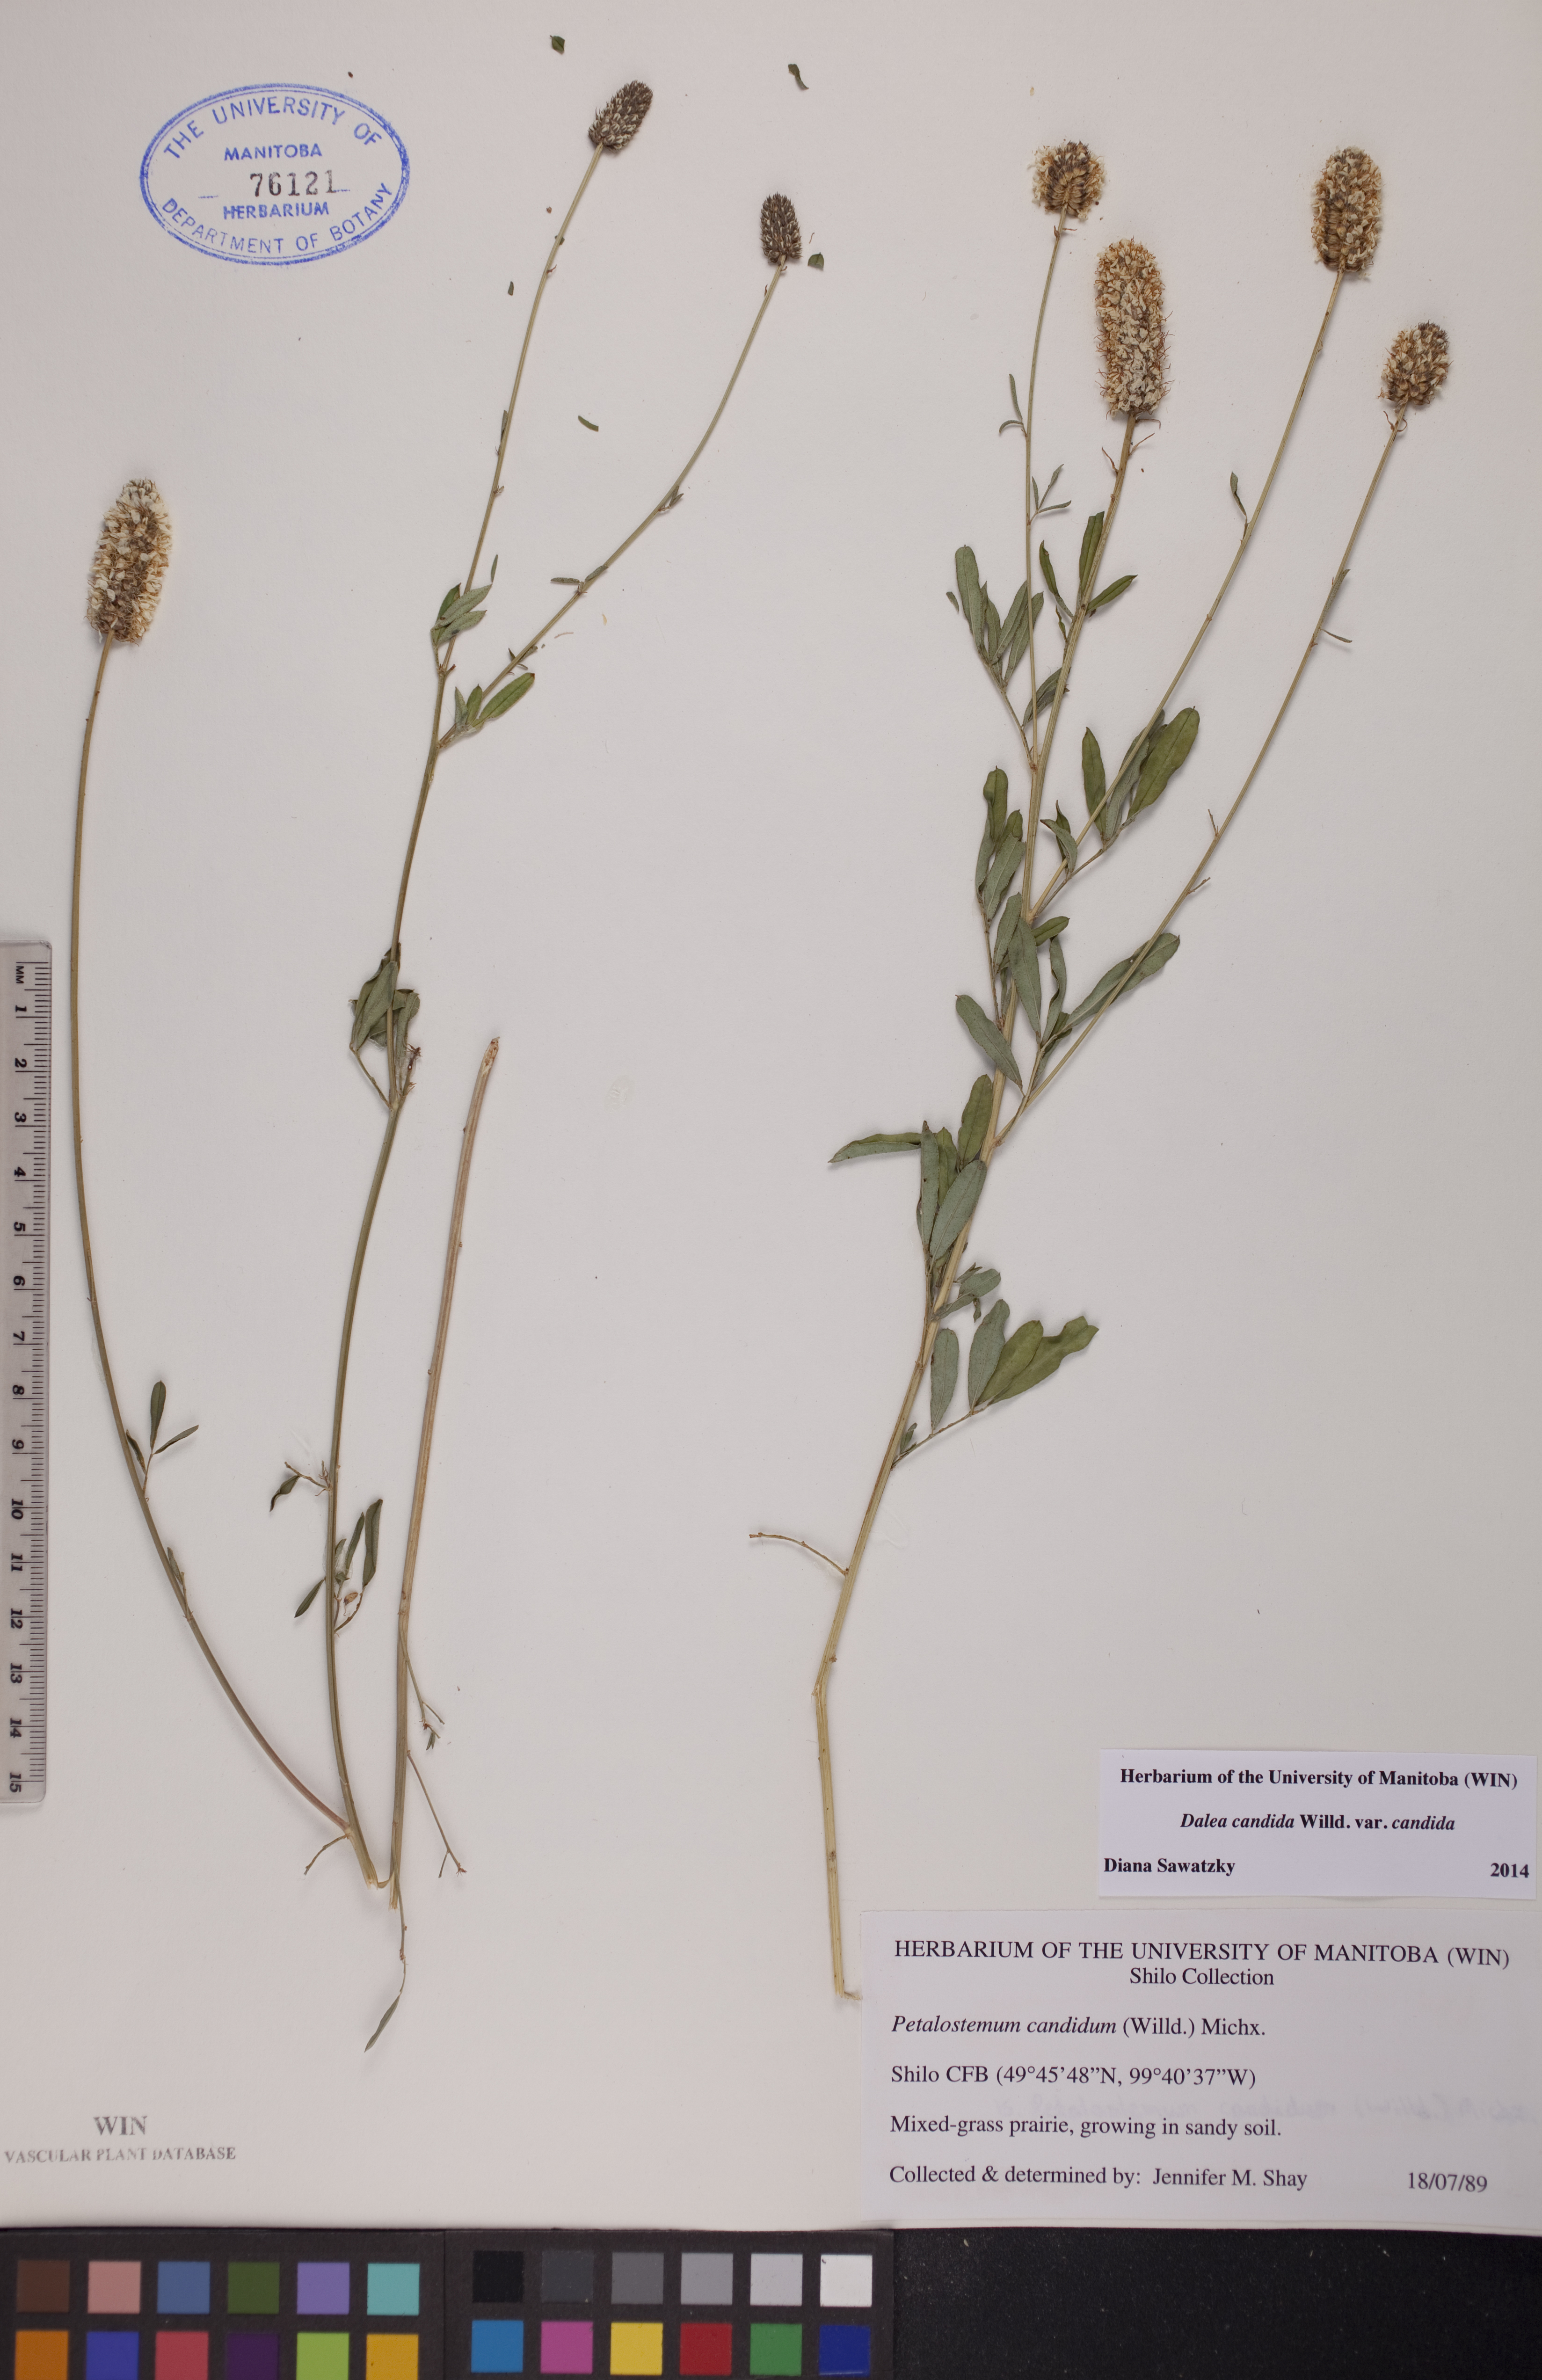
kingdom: Plantae
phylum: Tracheophyta
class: Magnoliopsida
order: Fabales
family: Fabaceae
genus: Dalea
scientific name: Dalea candida
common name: White prairie-clover
